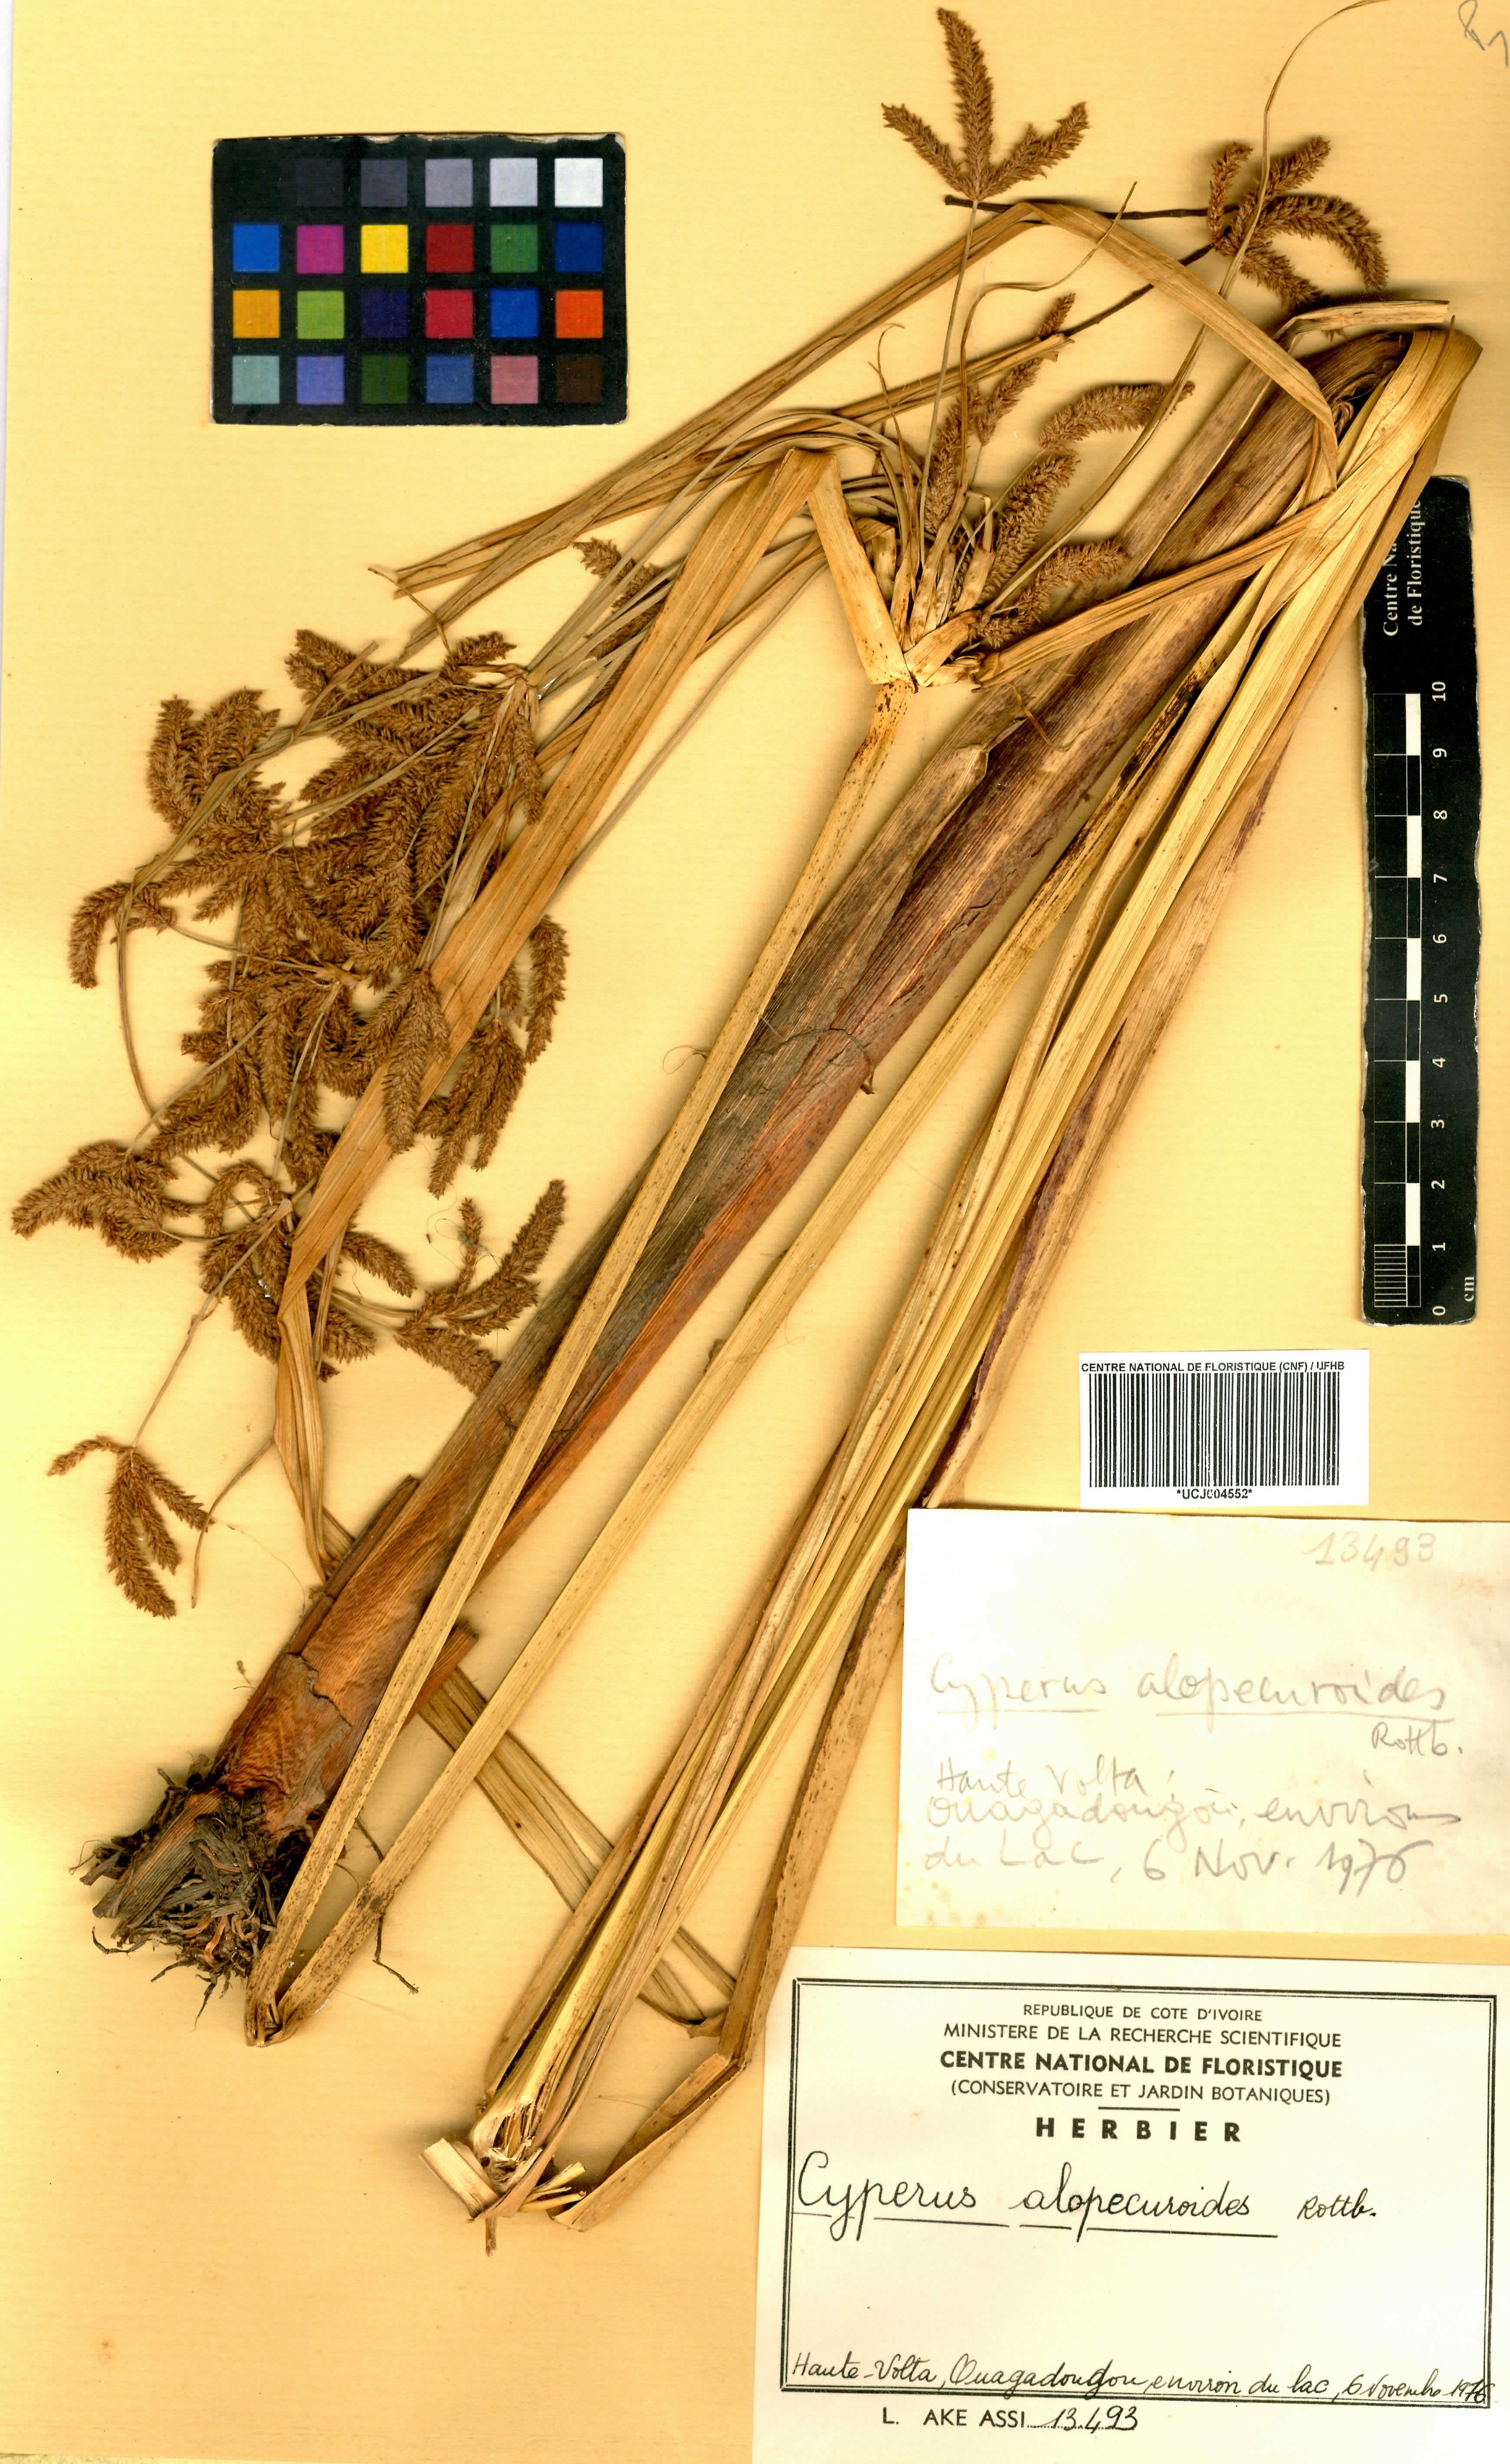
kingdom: Plantae
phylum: Tracheophyta
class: Liliopsida
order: Poales
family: Cyperaceae
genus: Cyperus
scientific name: Cyperus alopecuroides
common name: Foxtail flatsedge
